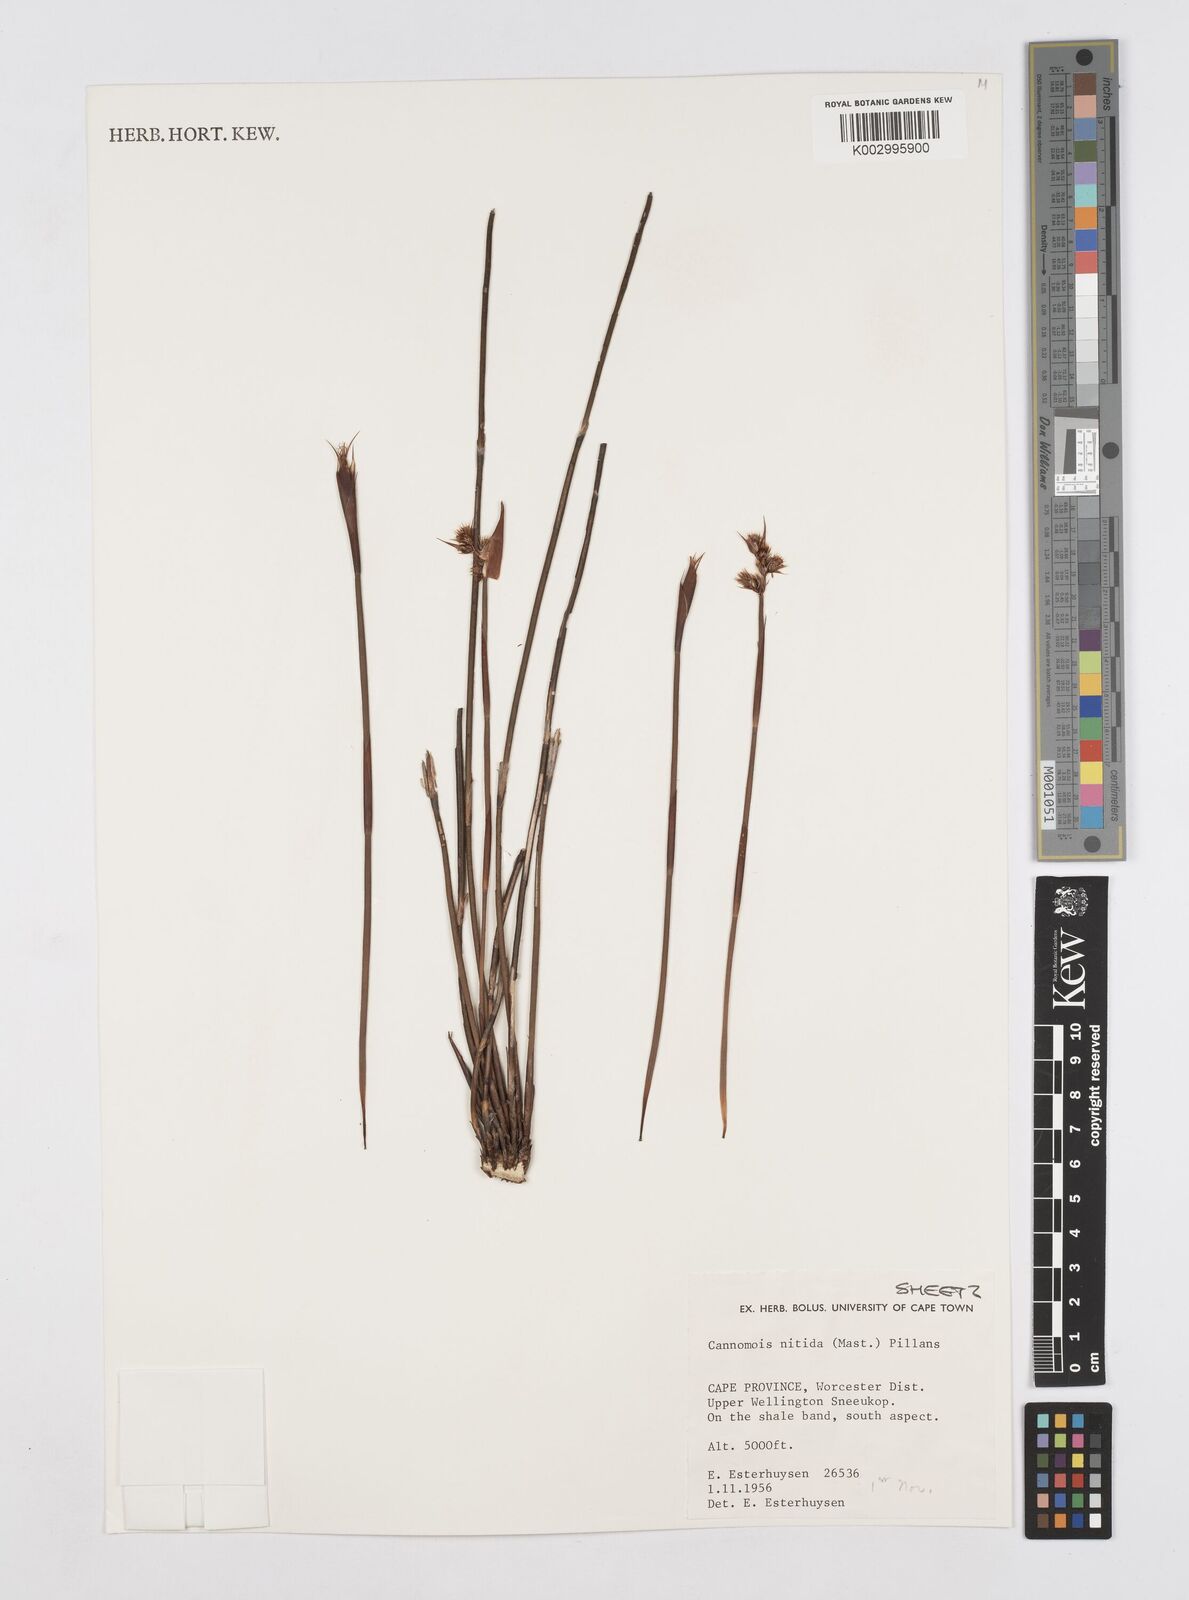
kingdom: Plantae
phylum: Tracheophyta
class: Liliopsida
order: Poales
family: Restionaceae
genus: Cannomois
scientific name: Cannomois nitida
